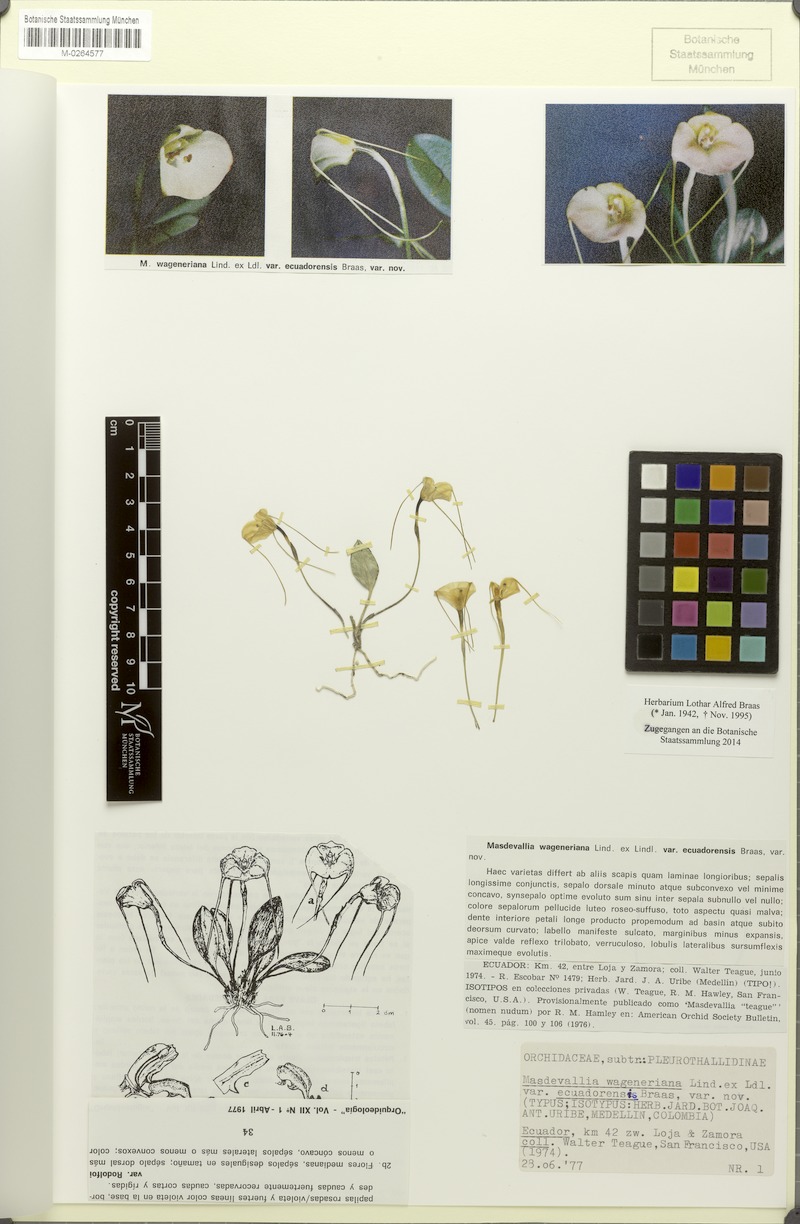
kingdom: Plantae
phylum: Tracheophyta
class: Liliopsida
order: Asparagales
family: Orchidaceae
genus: Masdevallia
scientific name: Masdevallia persicina
